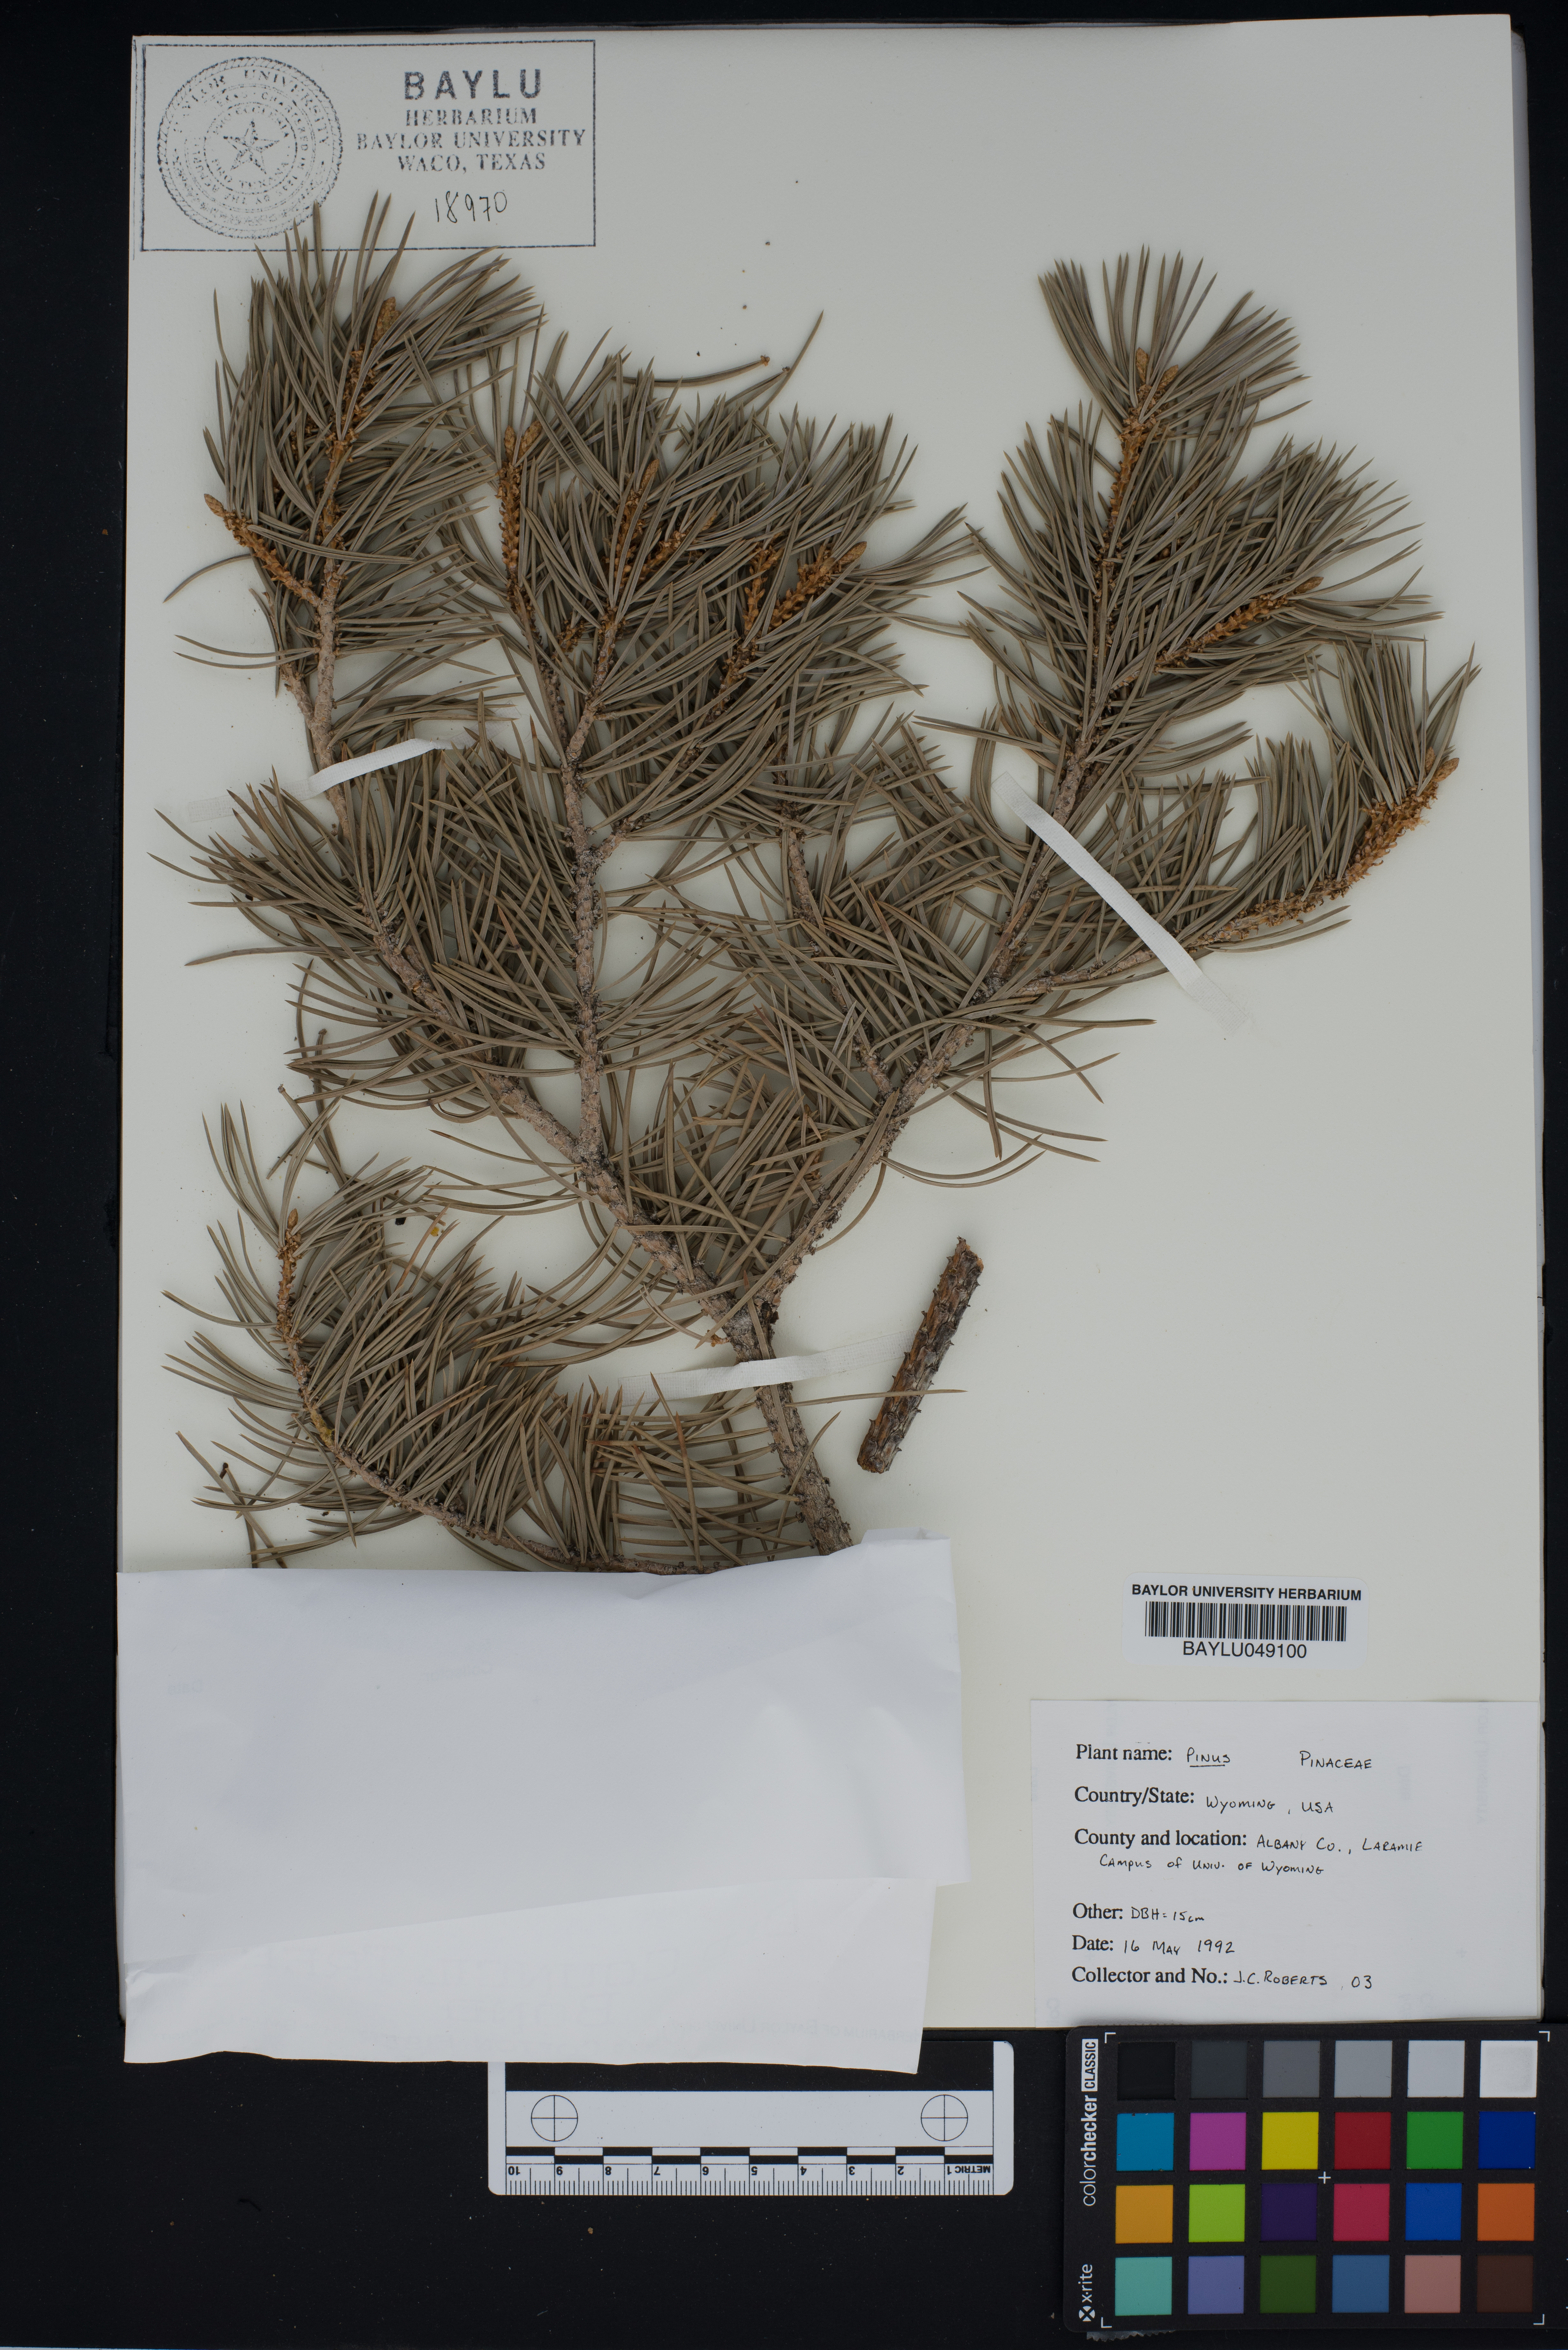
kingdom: Plantae
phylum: Tracheophyta
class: Pinopsida
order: Pinales
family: Pinaceae
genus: Pinus
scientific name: Pinus
